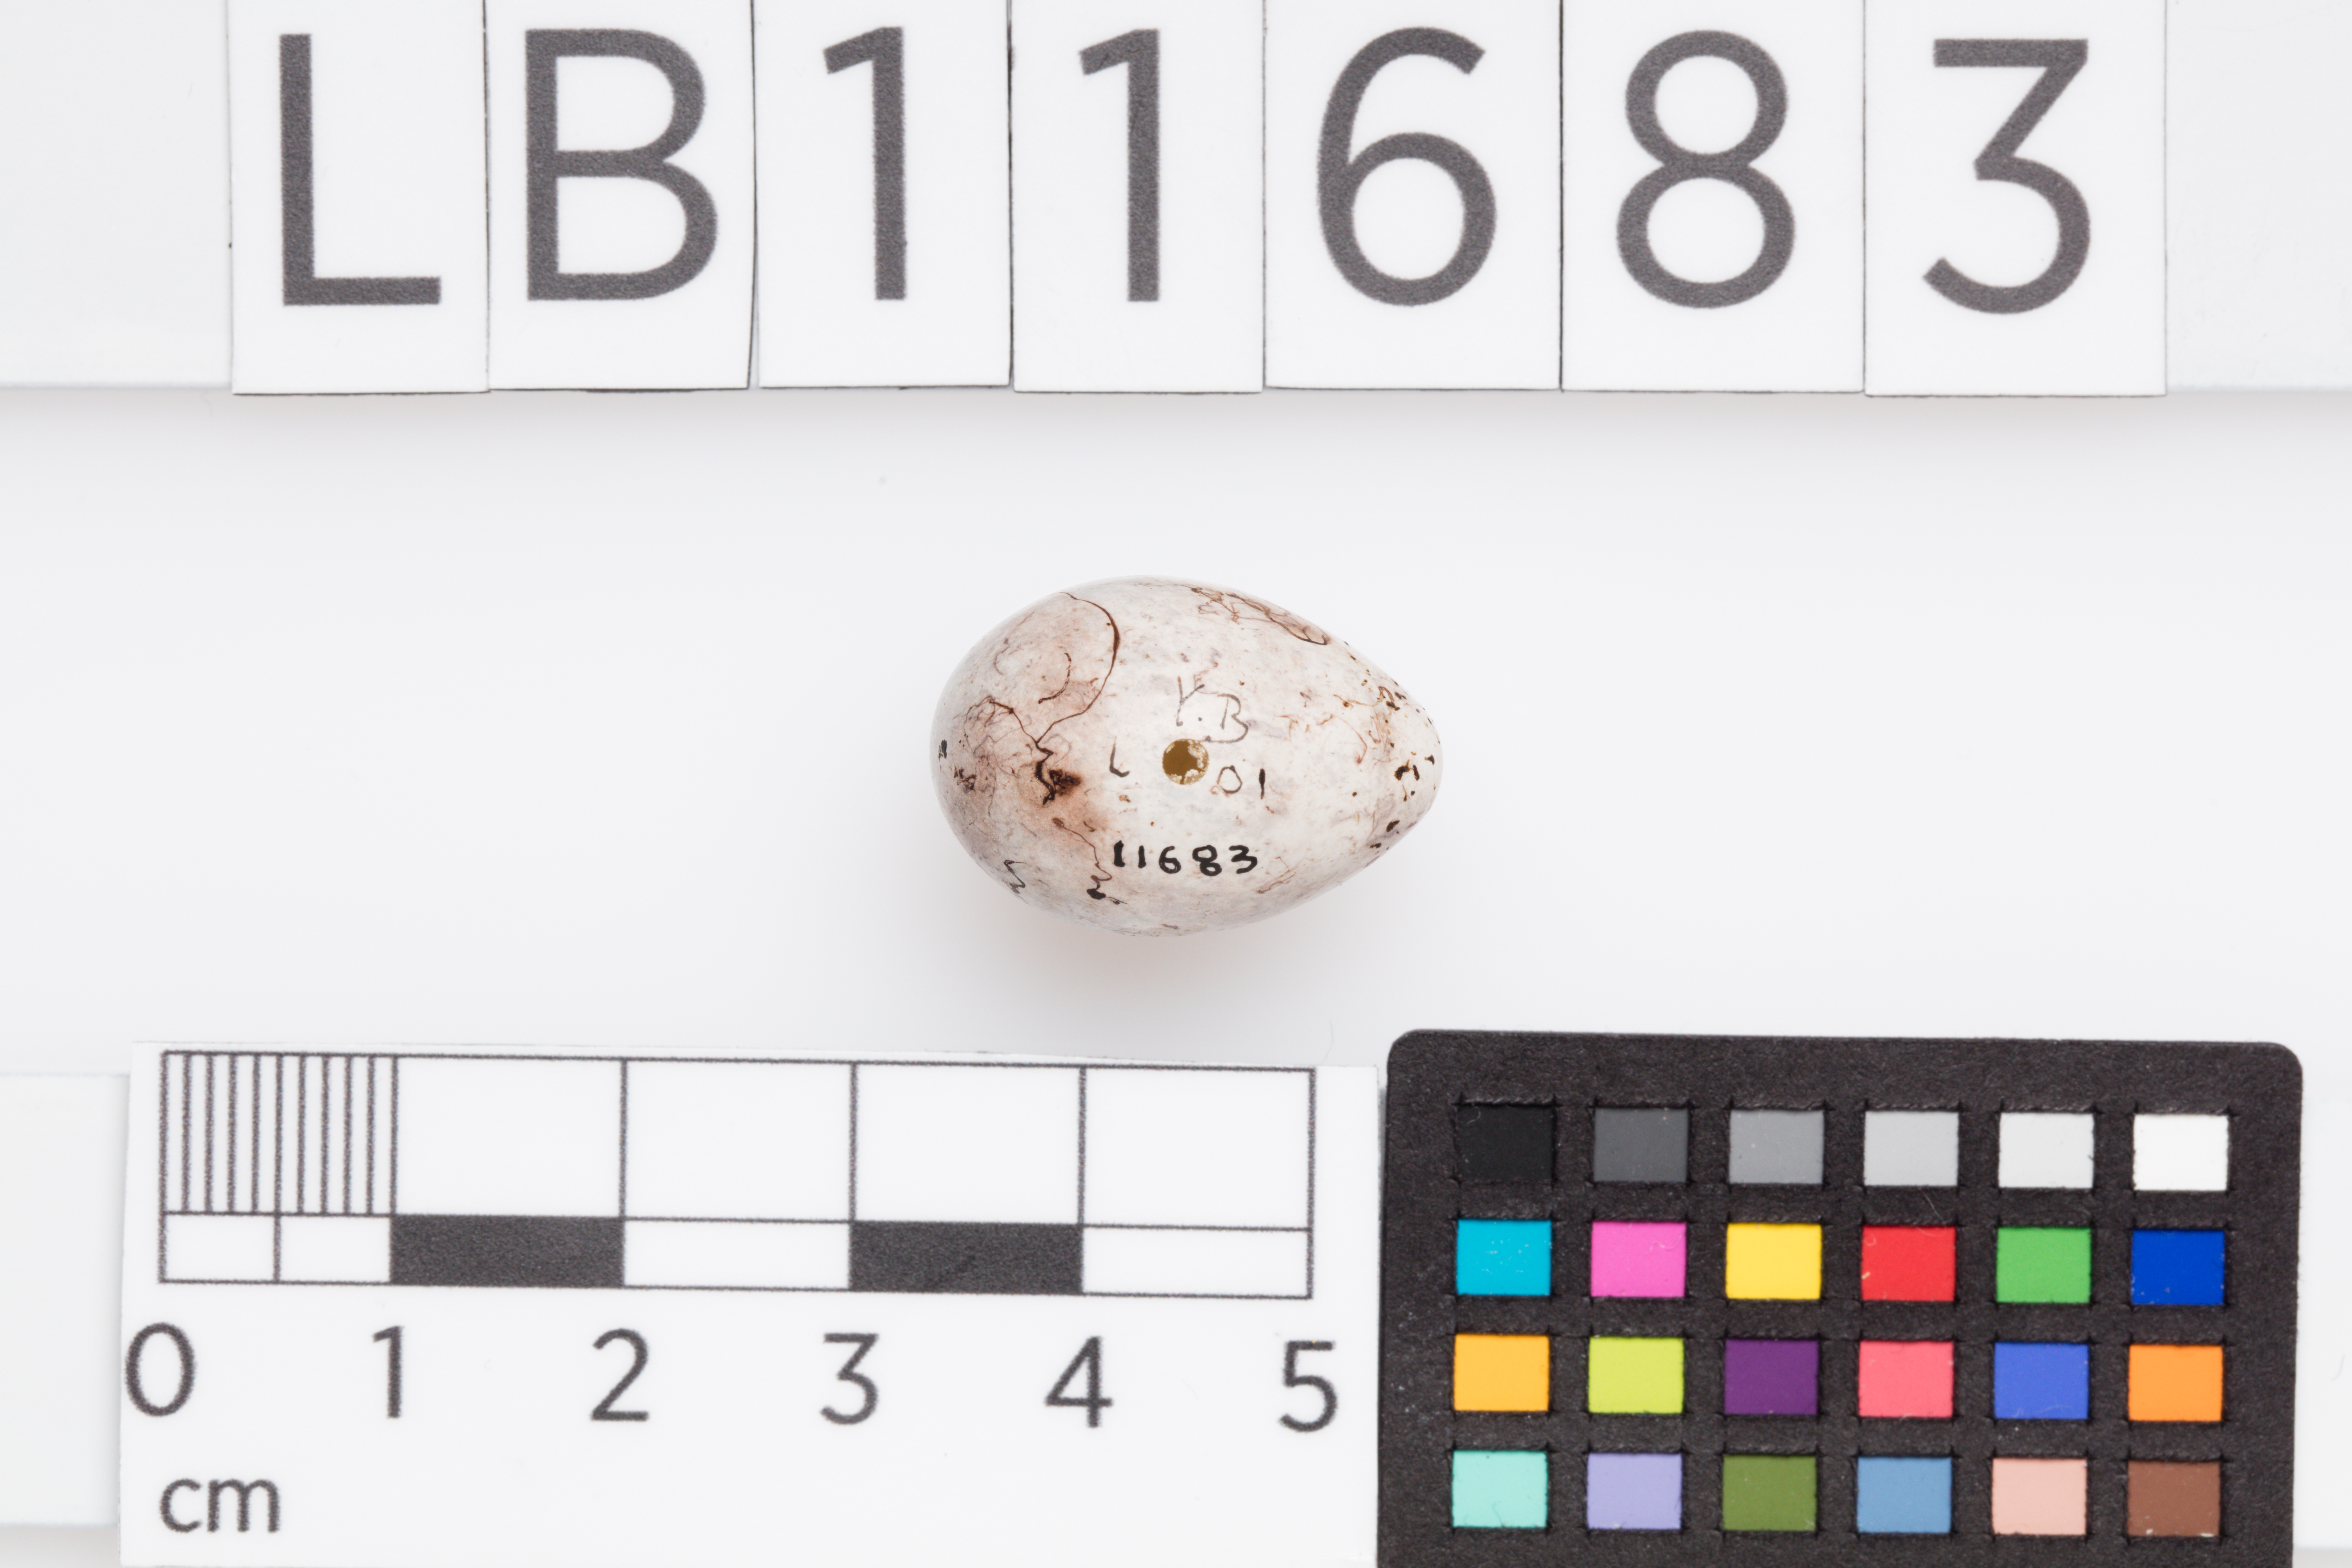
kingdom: Animalia
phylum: Chordata
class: Aves
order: Passeriformes
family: Emberizidae
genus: Emberiza
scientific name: Emberiza citrinella
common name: Yellowhammer
